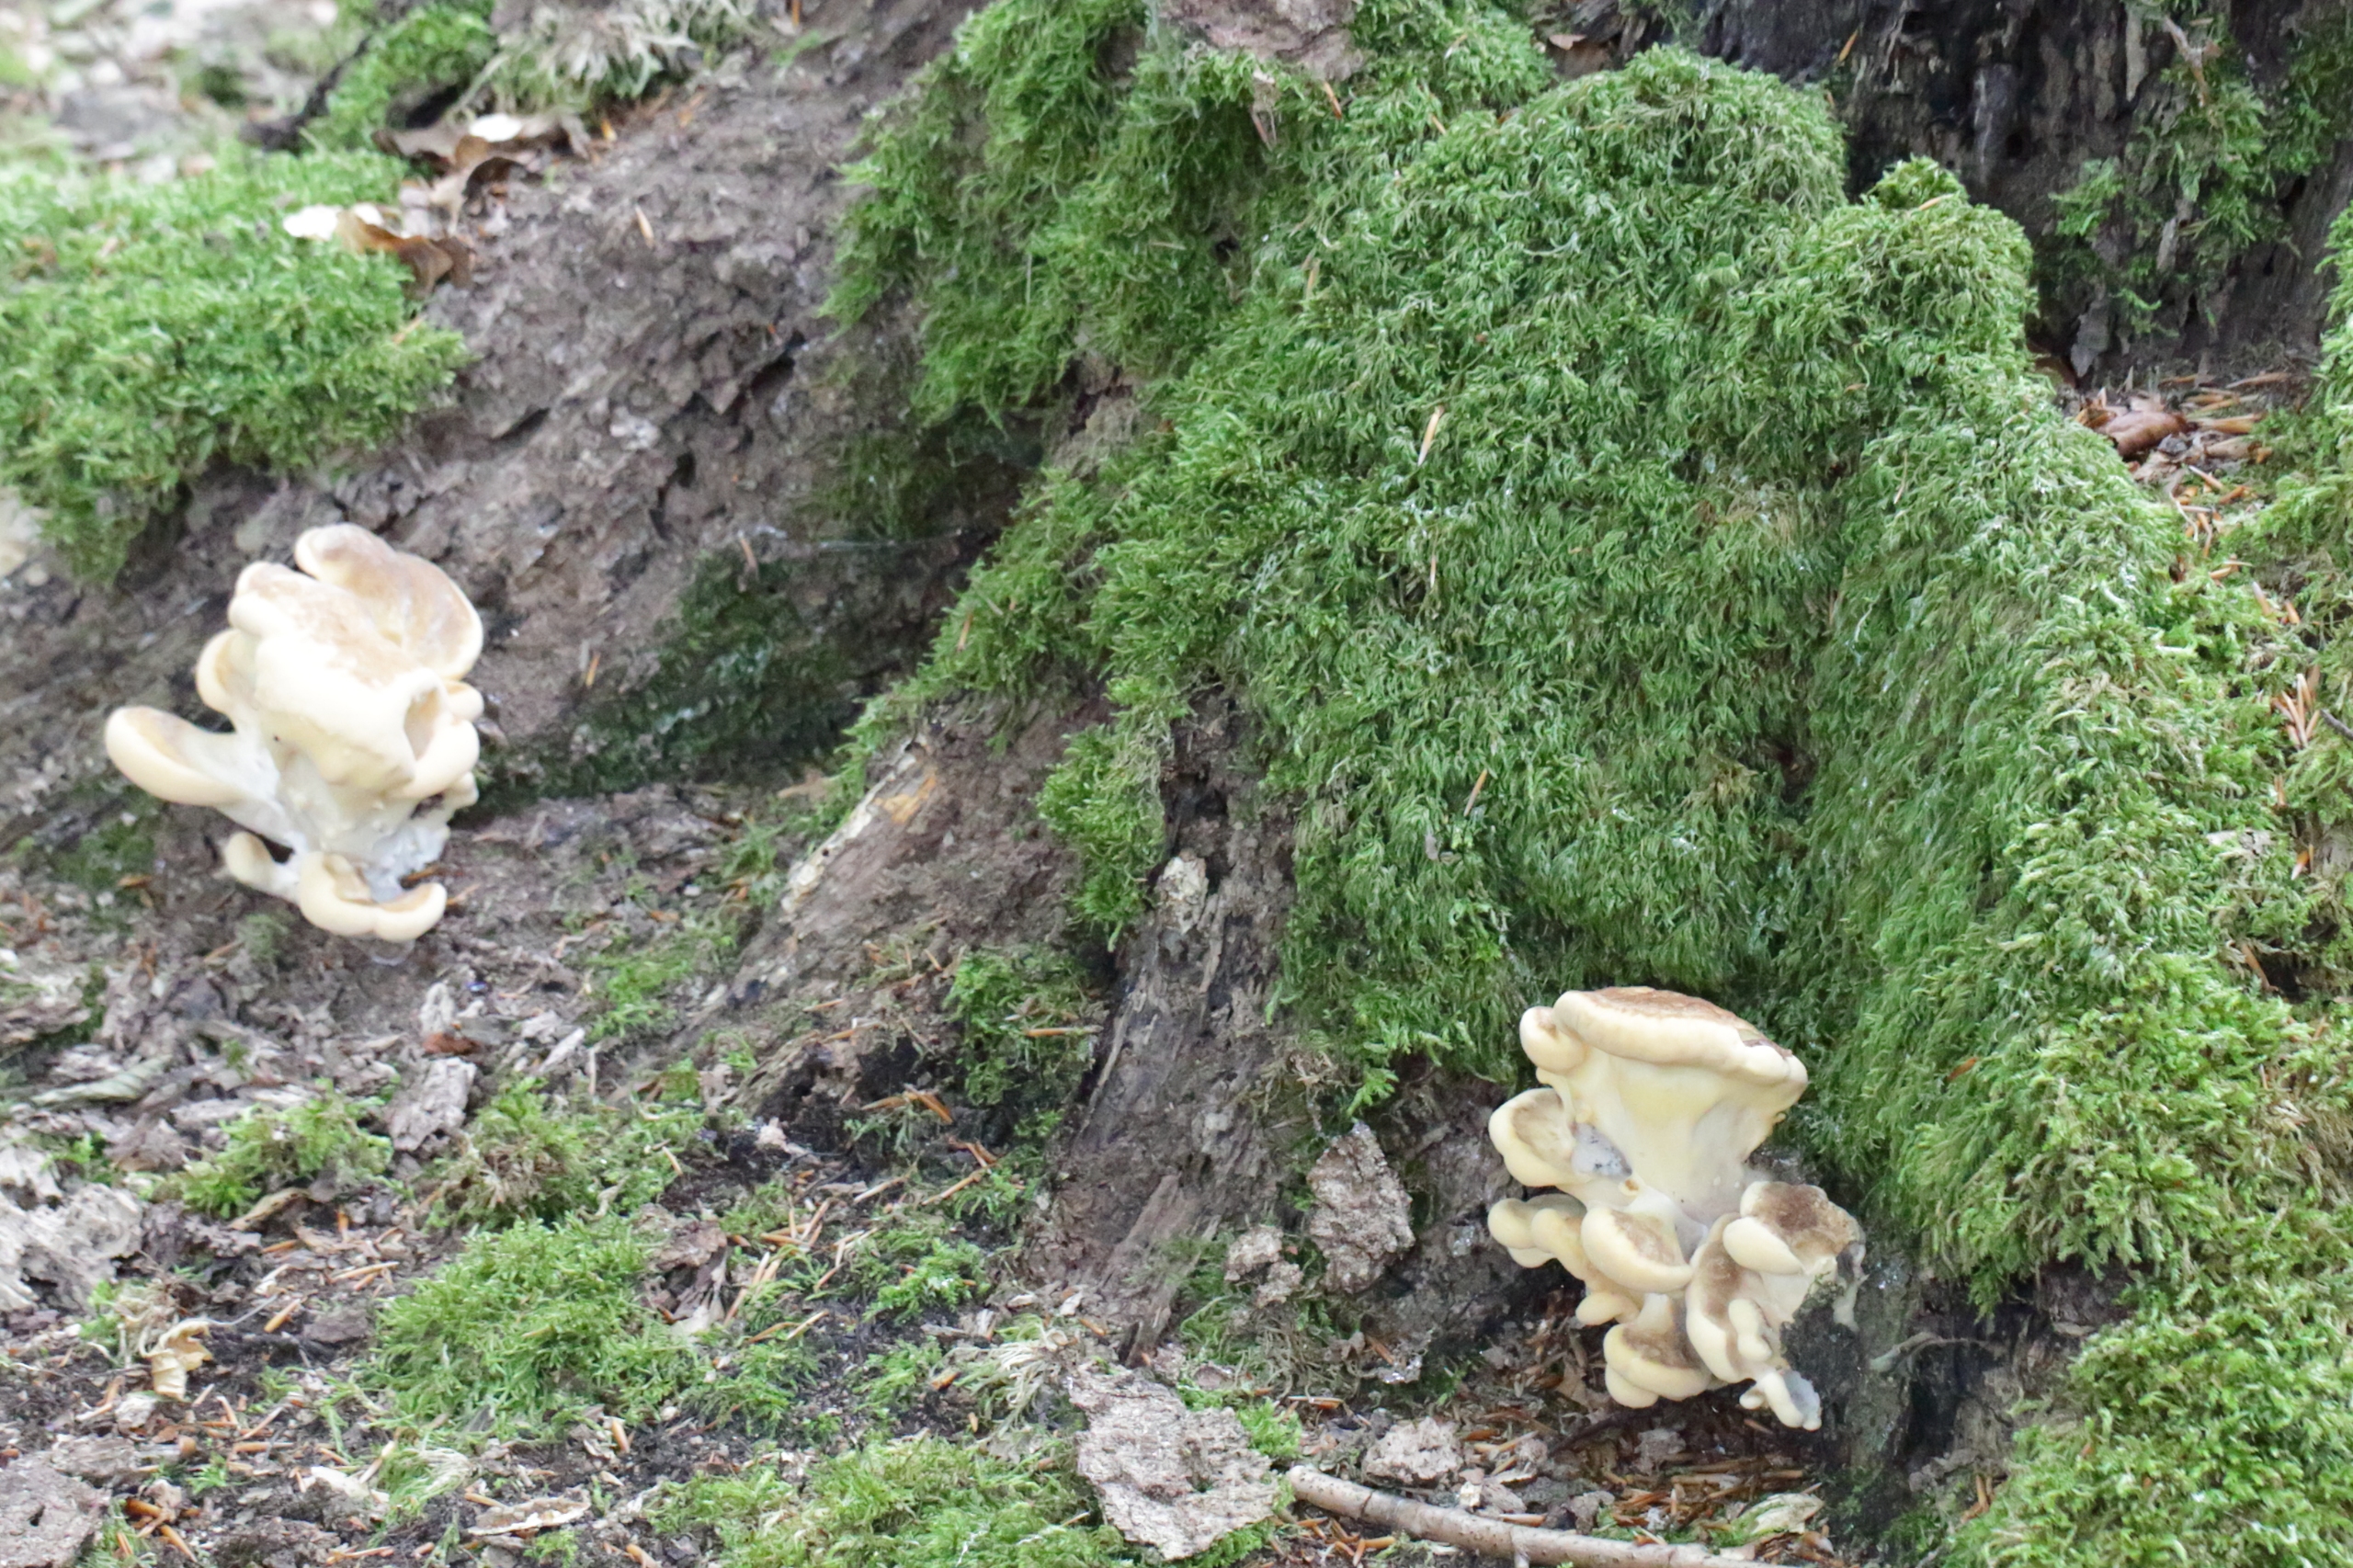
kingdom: Fungi
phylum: Basidiomycota
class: Agaricomycetes
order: Polyporales
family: Meripilaceae
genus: Meripilus
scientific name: Meripilus giganteus
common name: Kæmpeporesvamp
